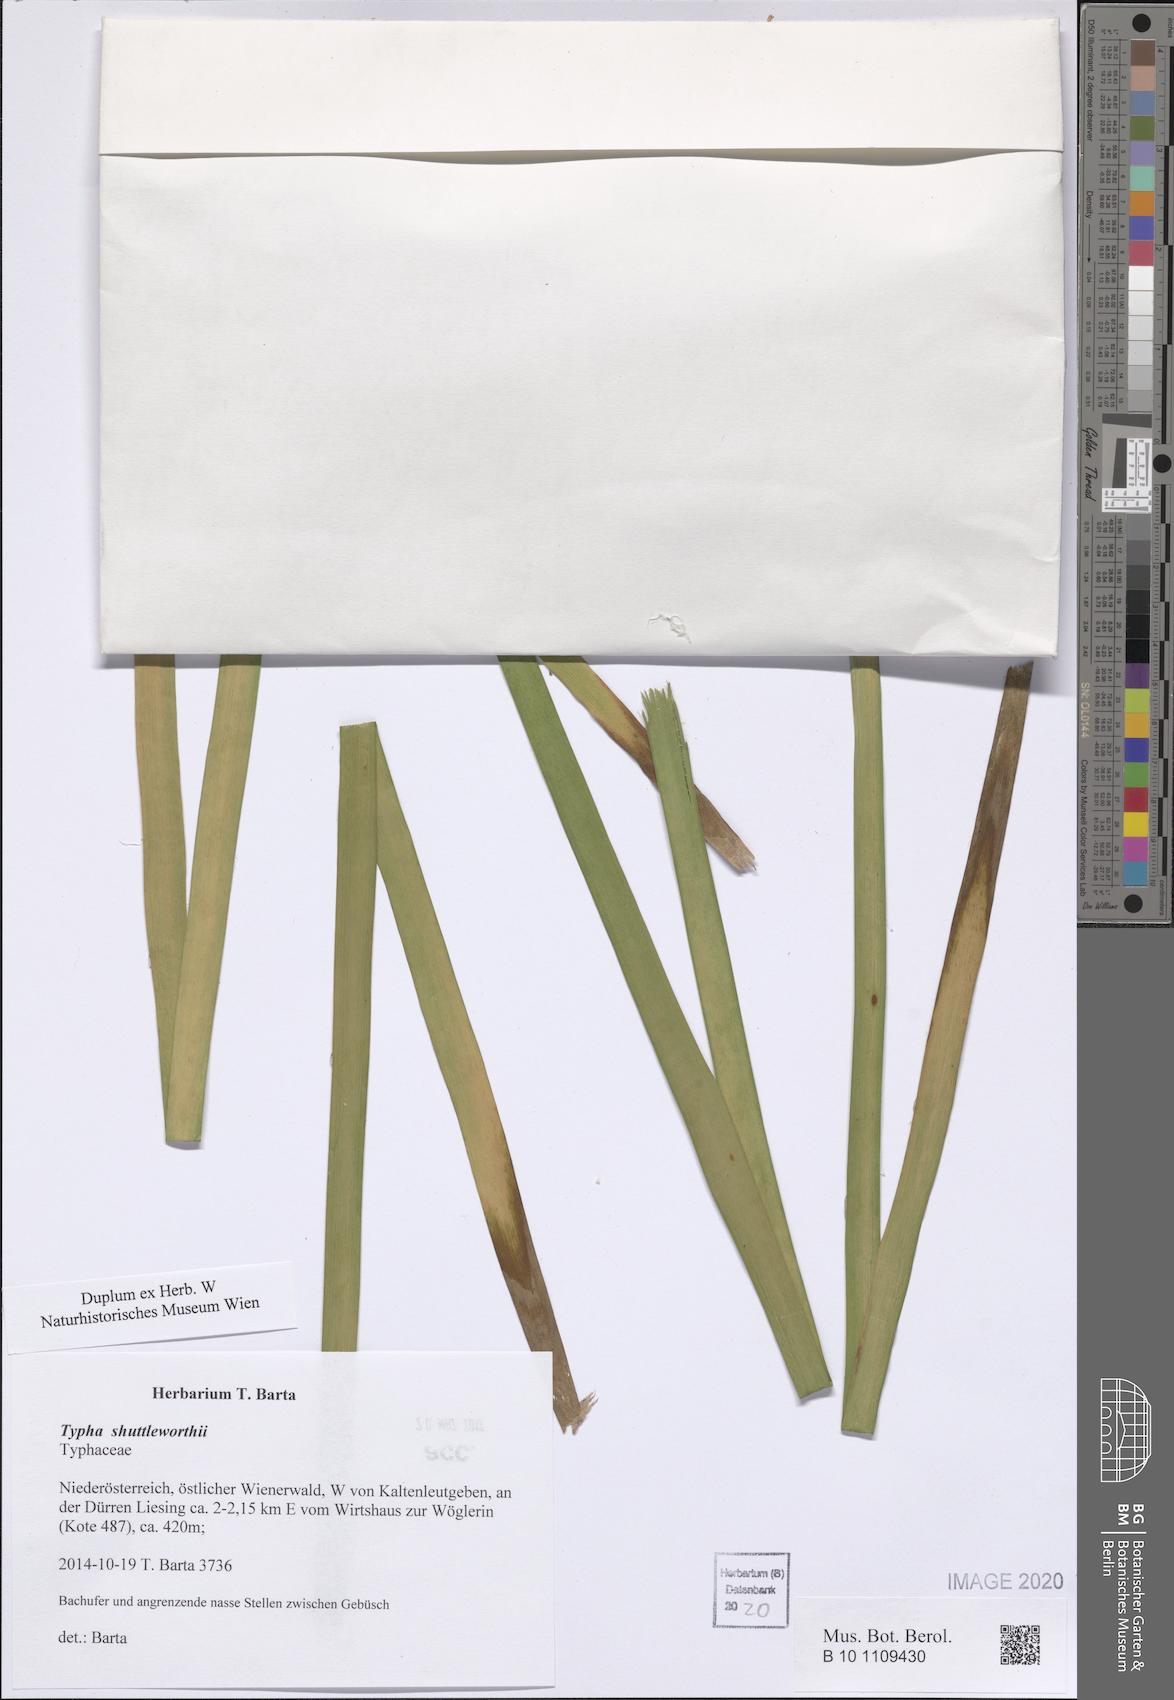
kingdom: Plantae
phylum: Tracheophyta
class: Liliopsida
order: Poales
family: Typhaceae
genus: Typha
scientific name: Typha shuttleworthii
